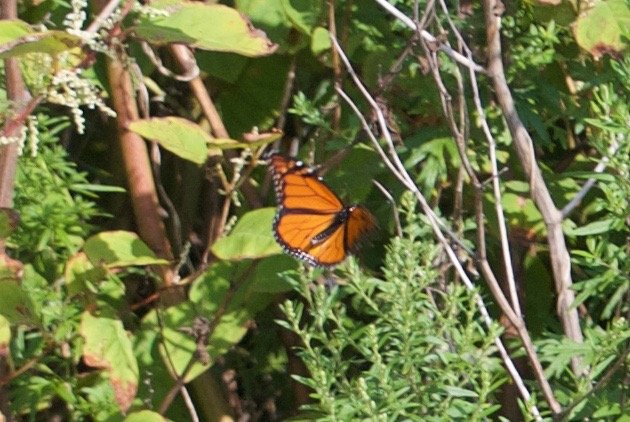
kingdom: Animalia
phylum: Arthropoda
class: Insecta
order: Lepidoptera
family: Nymphalidae
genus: Danaus
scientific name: Danaus plexippus
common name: Monarch
